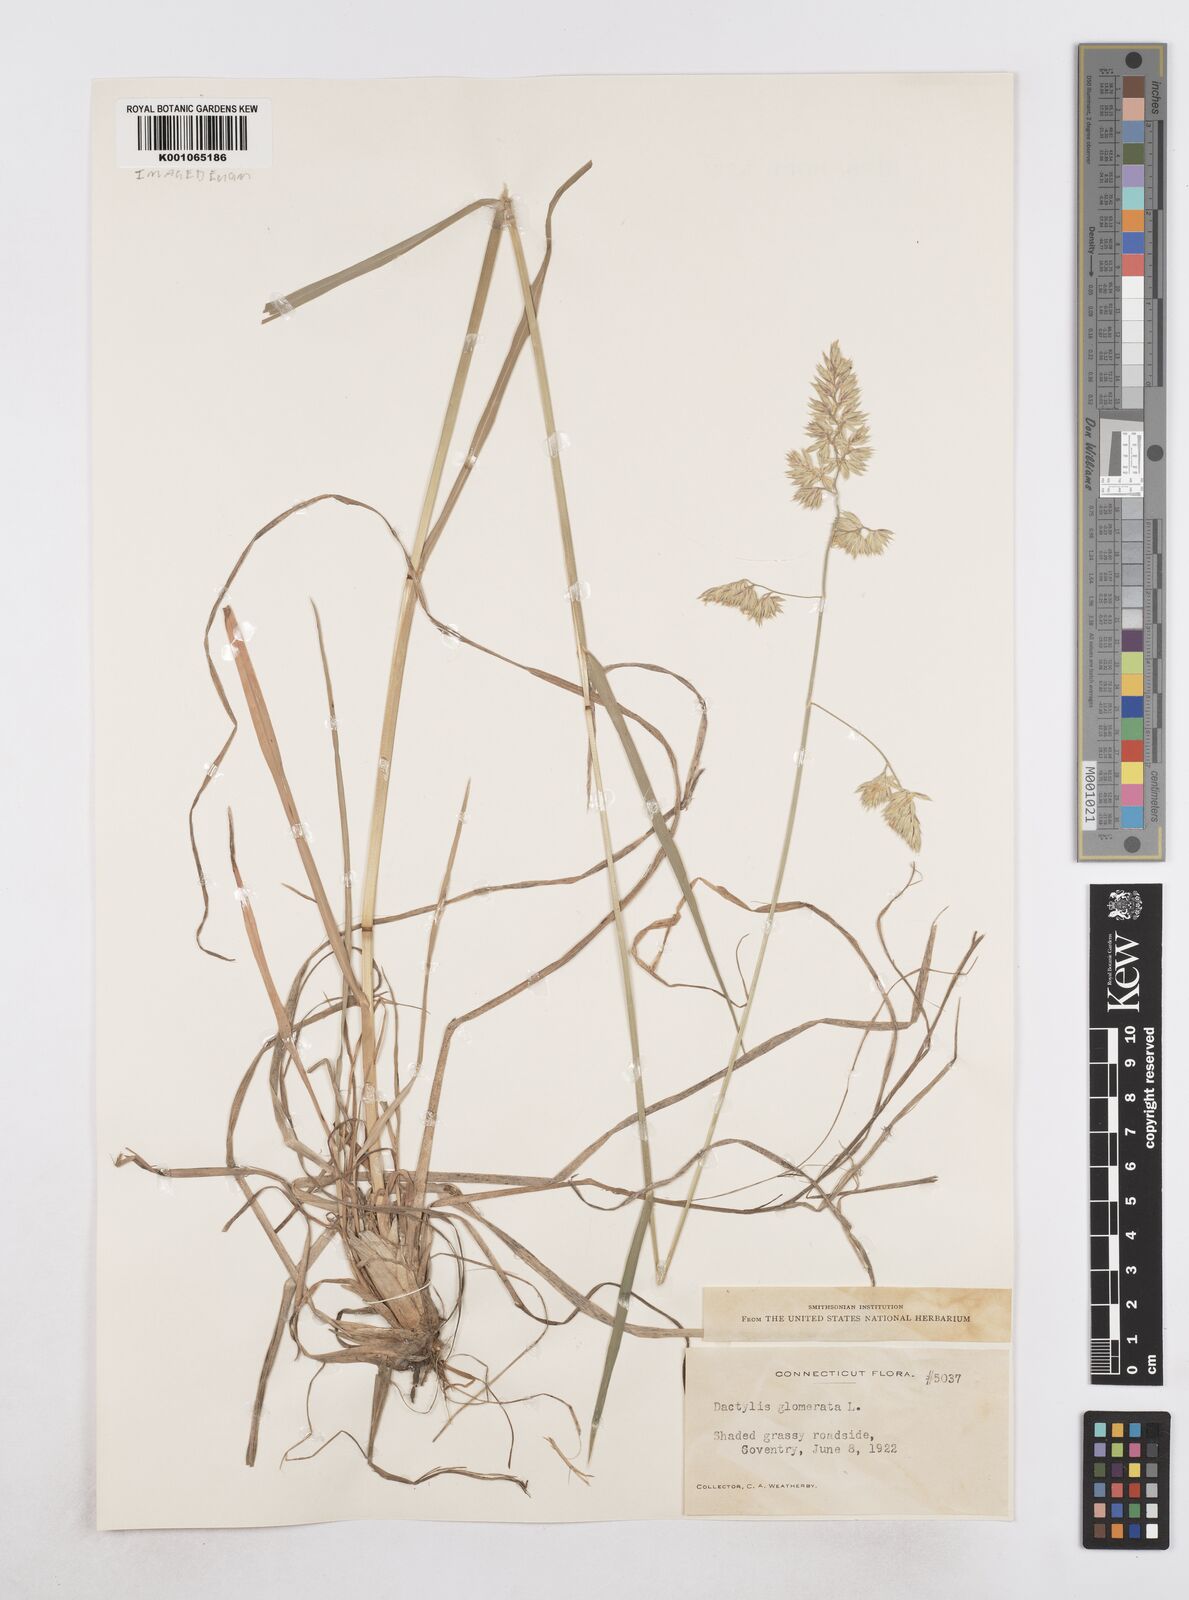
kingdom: Plantae
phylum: Tracheophyta
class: Liliopsida
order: Poales
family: Poaceae
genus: Dactylis
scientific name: Dactylis glomerata
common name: Orchardgrass
